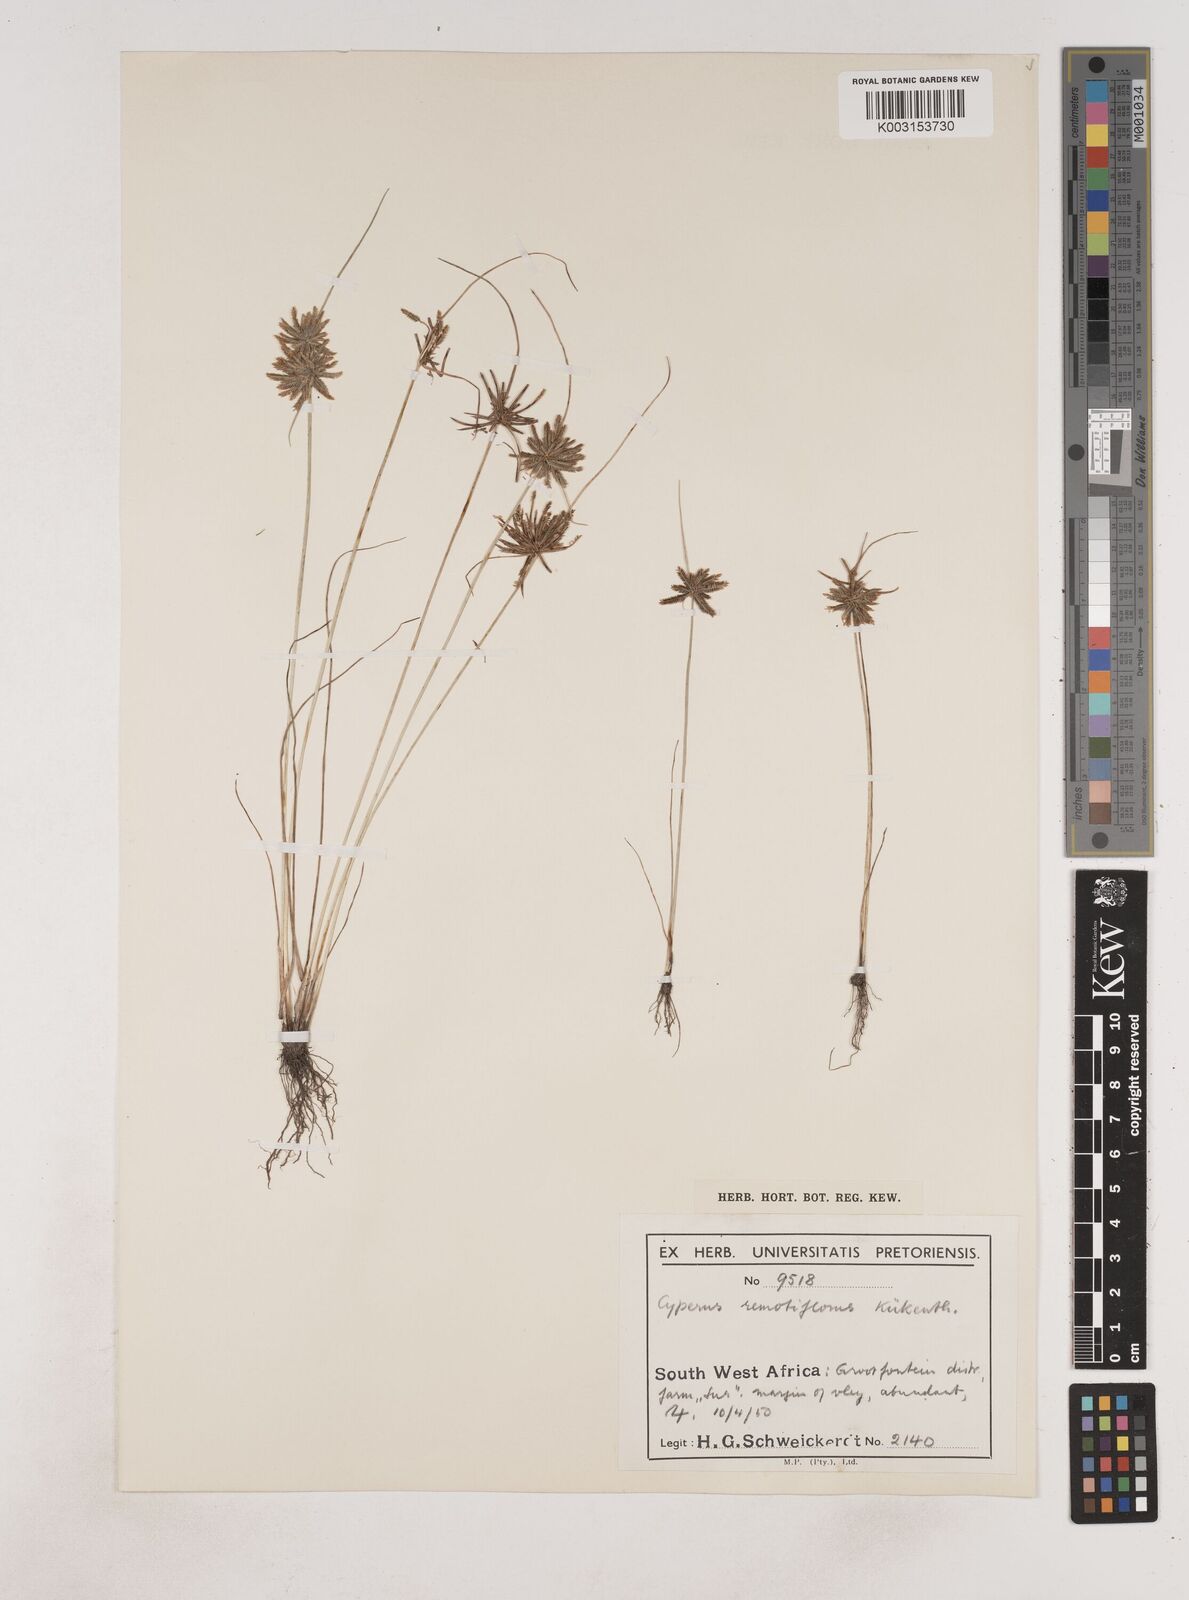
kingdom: Plantae
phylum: Tracheophyta
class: Liliopsida
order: Poales
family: Cyperaceae
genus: Cyperus
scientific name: Cyperus remotiflorus
